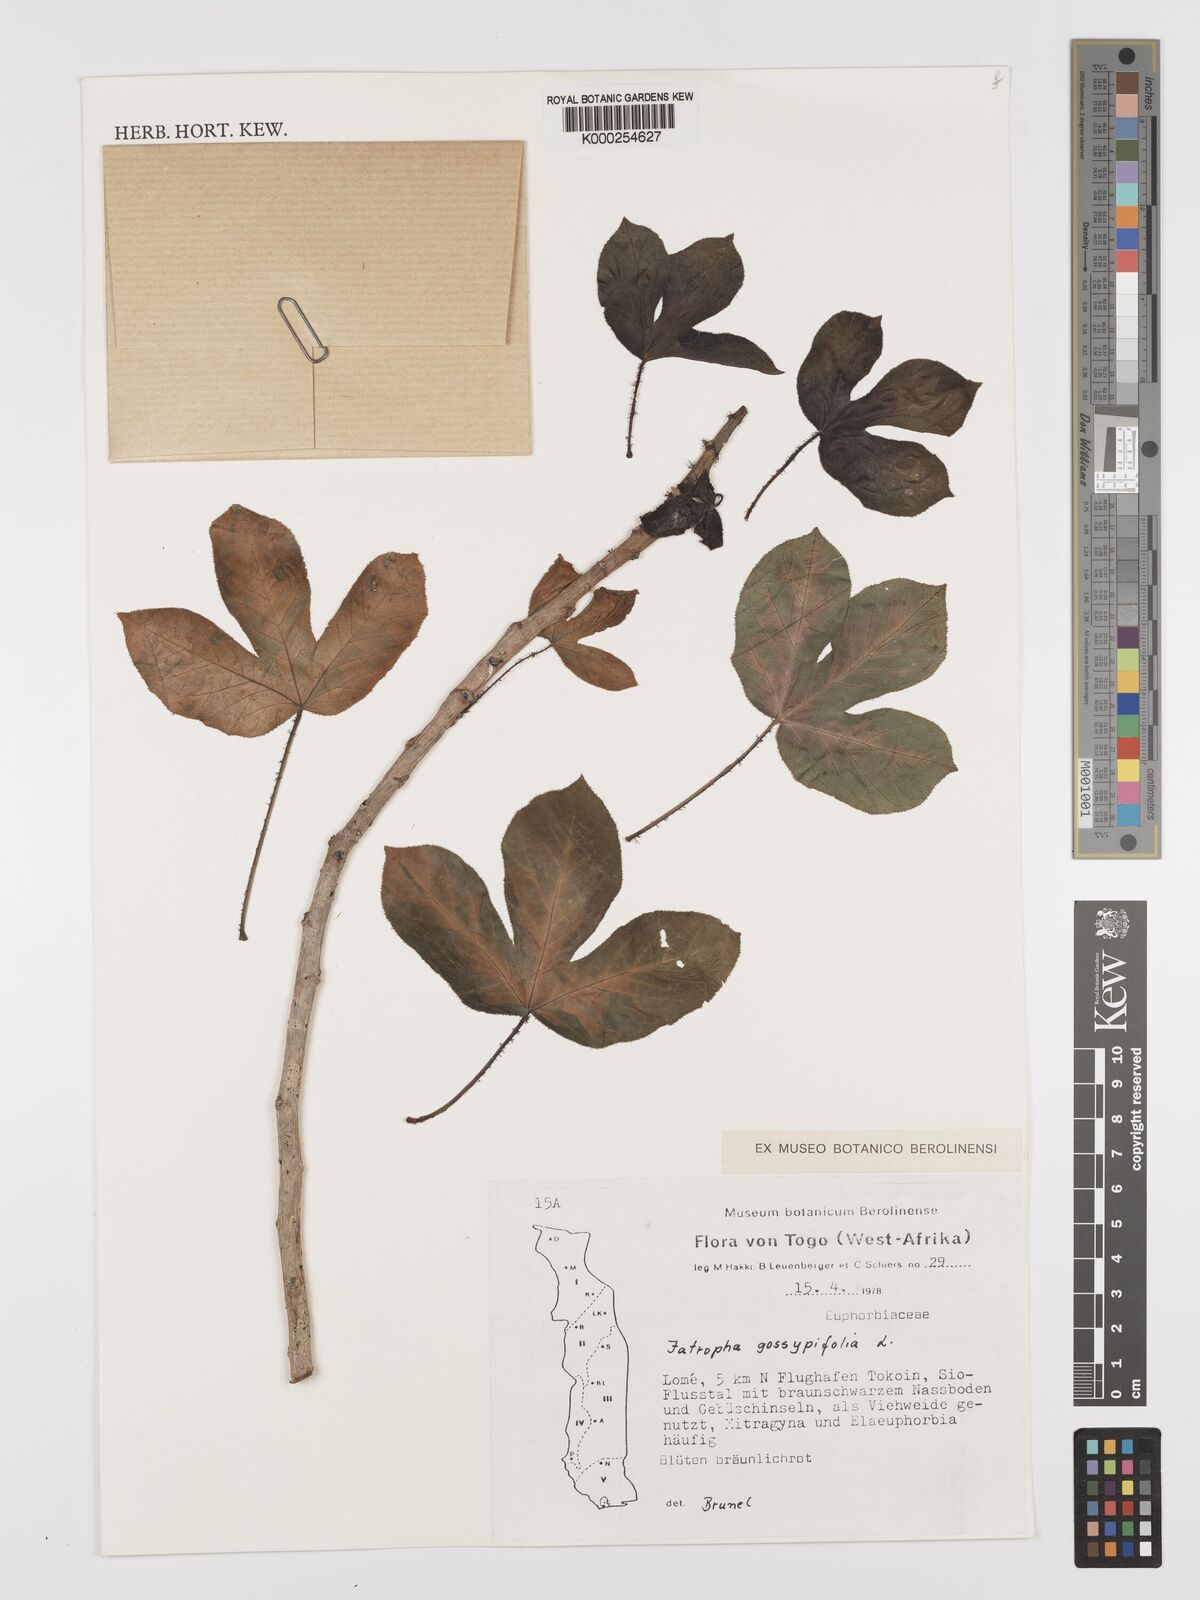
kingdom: Plantae
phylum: Tracheophyta
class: Magnoliopsida
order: Malpighiales
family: Euphorbiaceae
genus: Jatropha
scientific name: Jatropha gossypiifolia
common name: Bellyache bush
